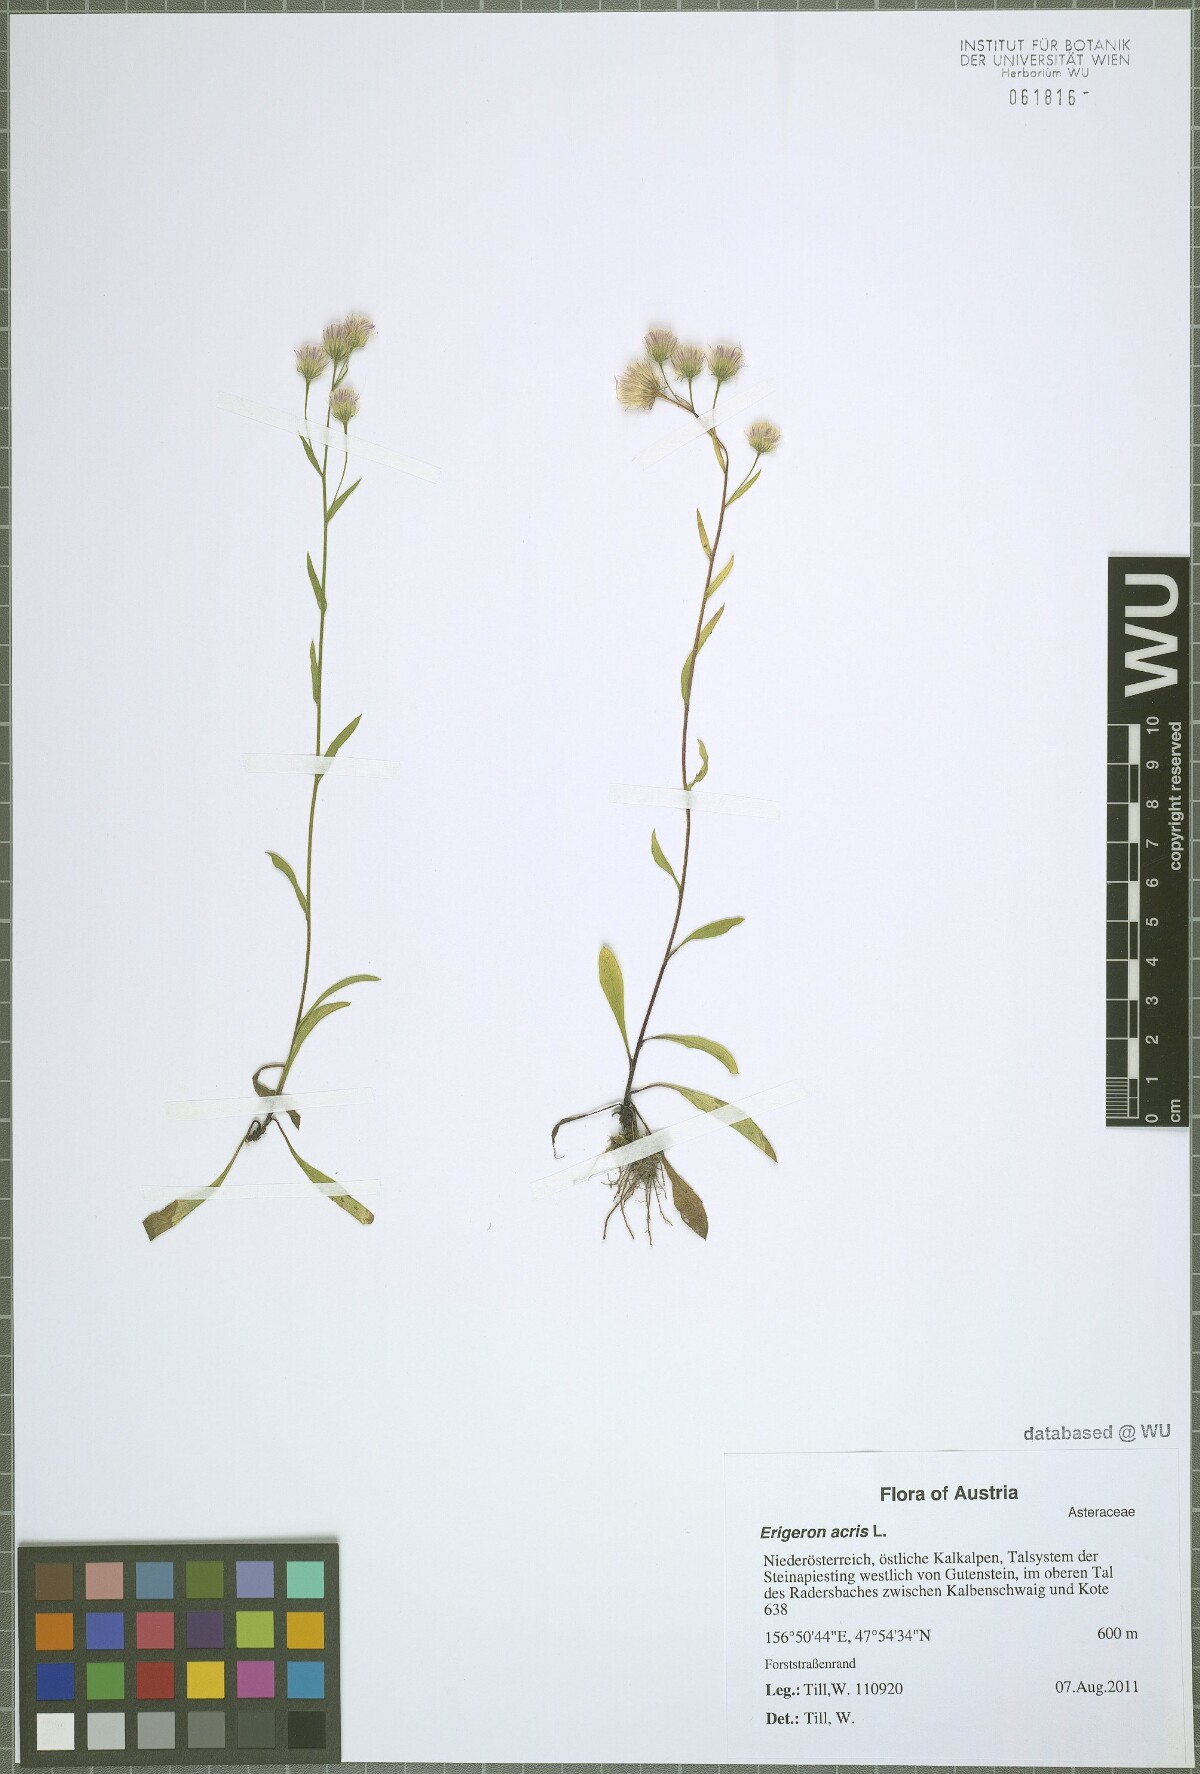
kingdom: Plantae
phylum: Tracheophyta
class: Magnoliopsida
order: Asterales
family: Asteraceae
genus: Erigeron
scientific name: Erigeron acris
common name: Blue fleabane
